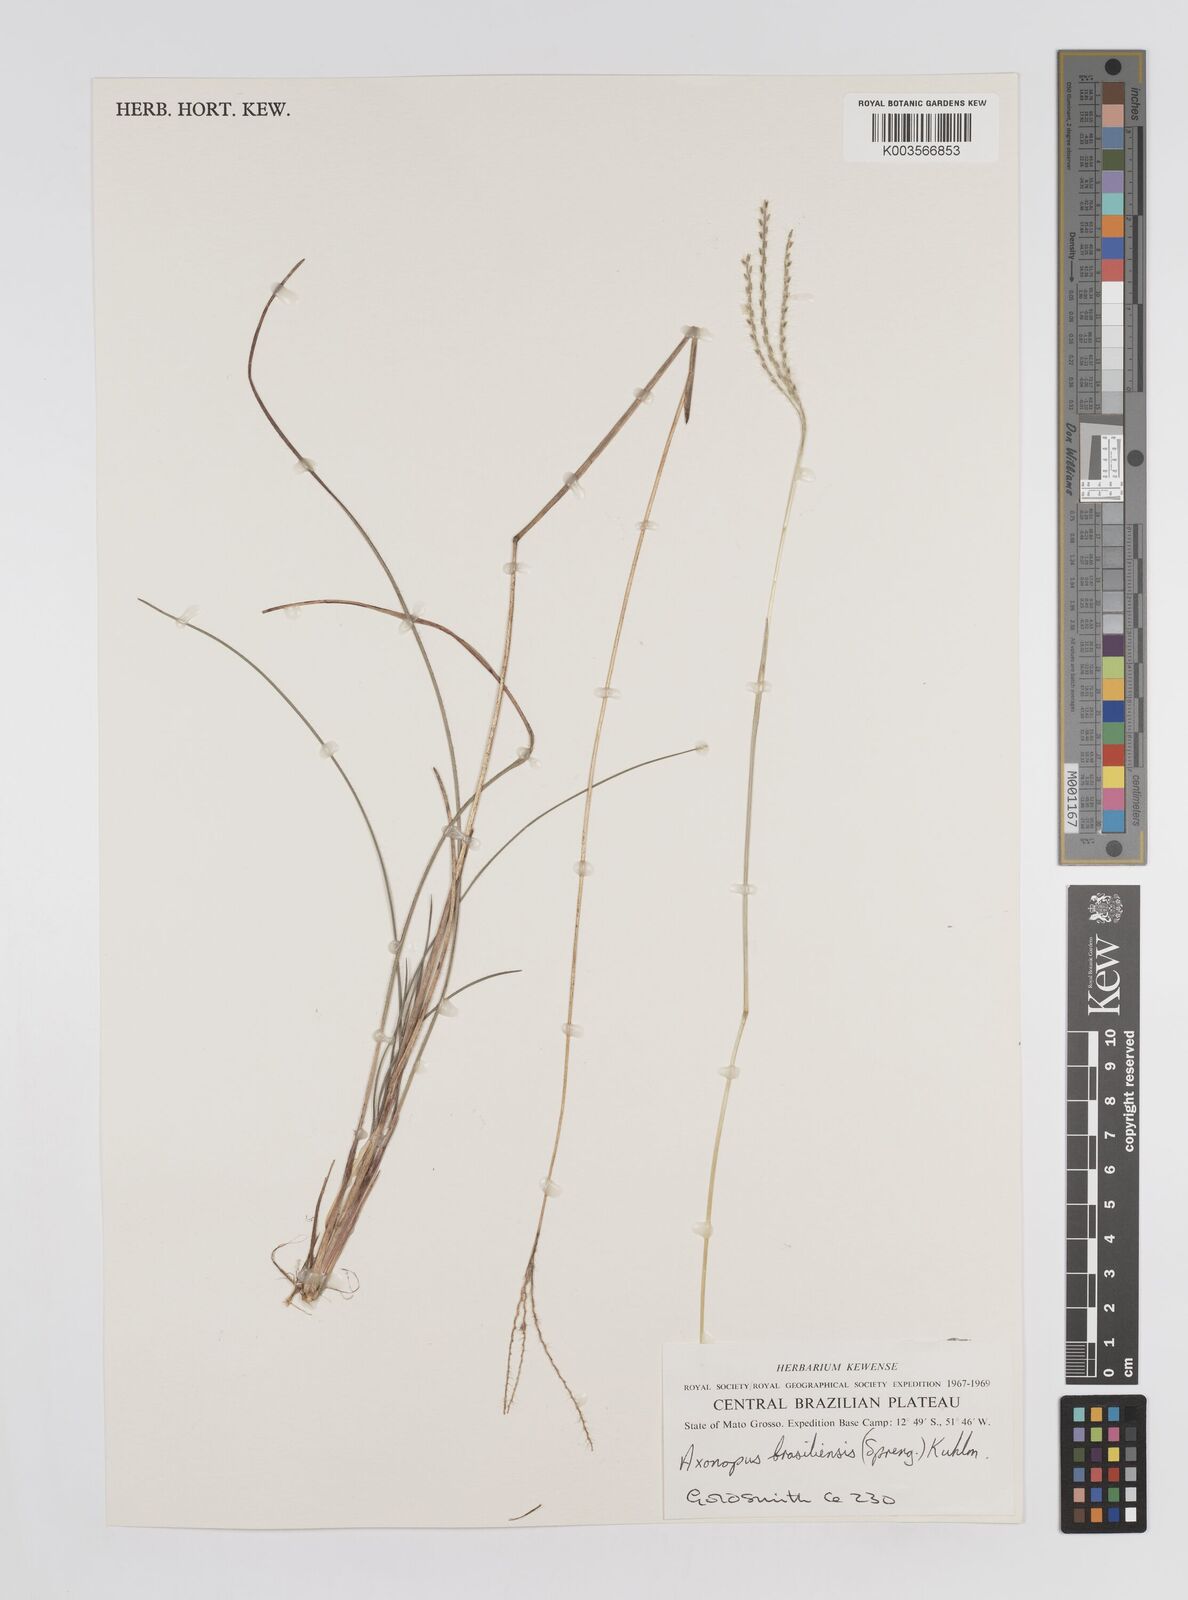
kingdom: Plantae
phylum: Tracheophyta
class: Liliopsida
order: Poales
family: Poaceae
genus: Axonopus
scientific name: Axonopus brasiliensis
